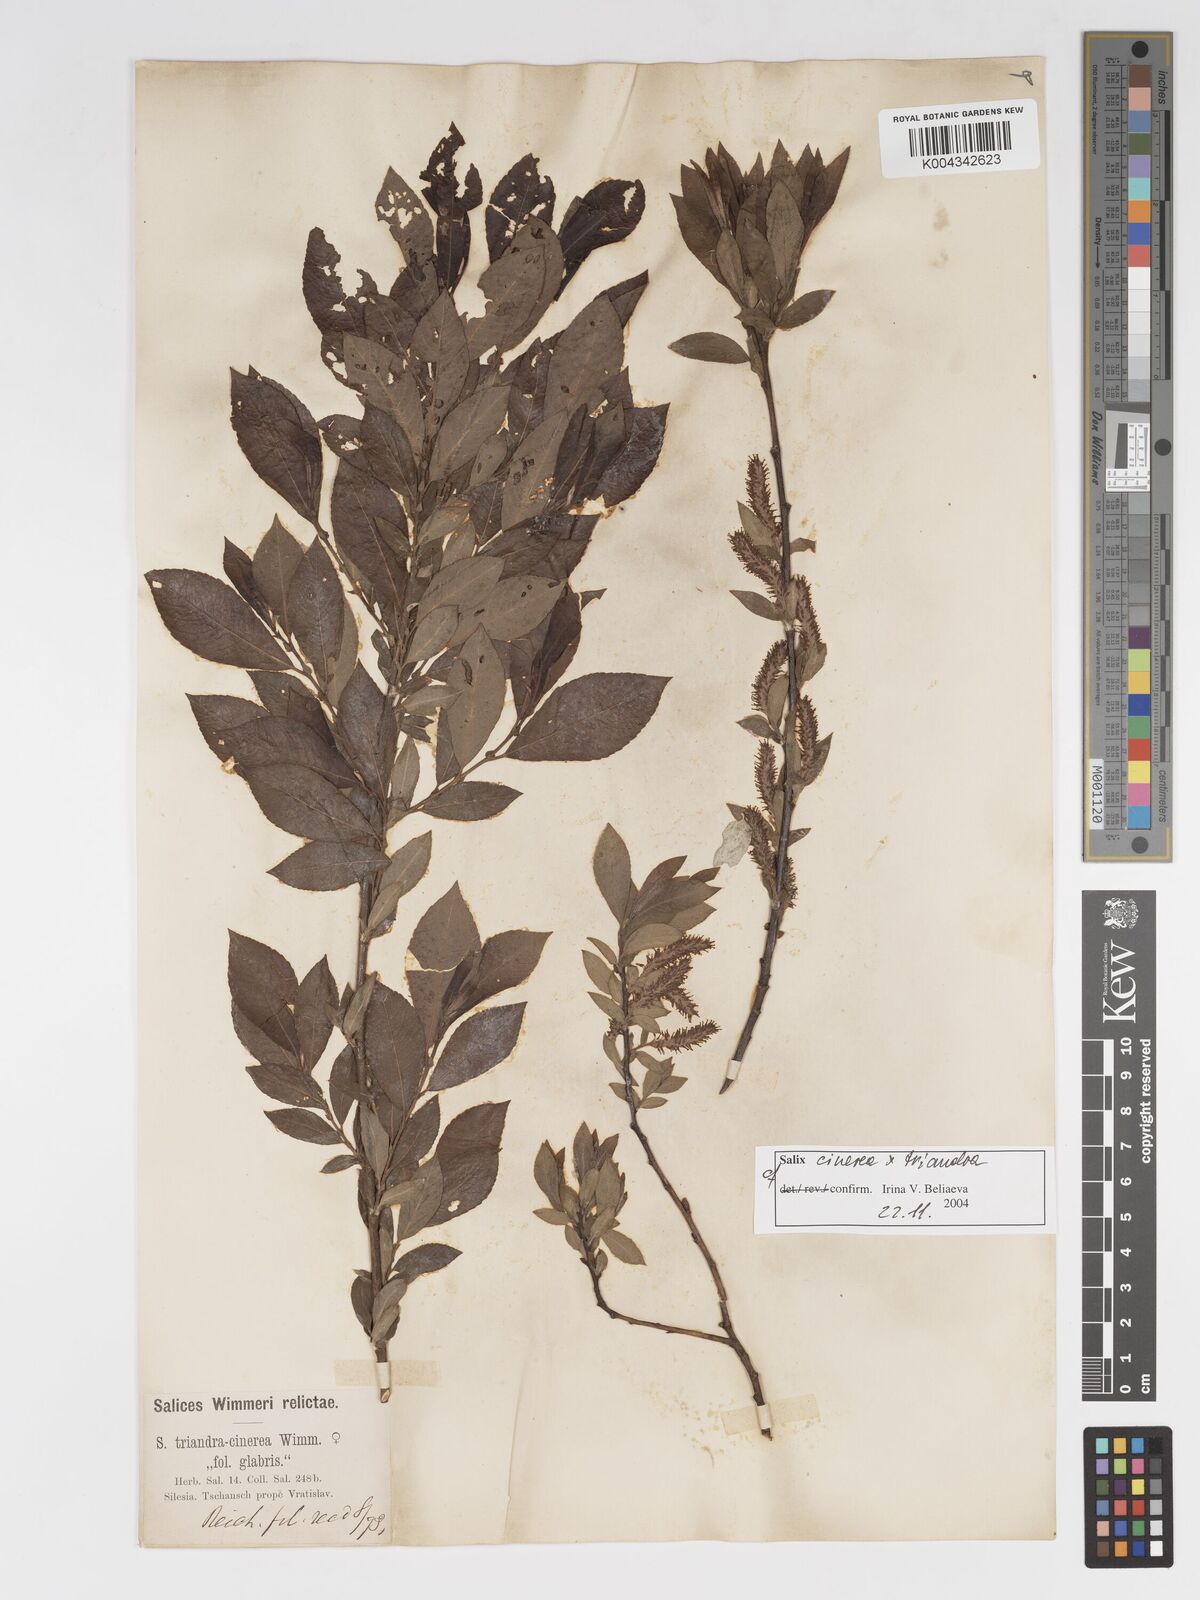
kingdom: Plantae
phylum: Tracheophyta
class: Magnoliopsida
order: Malpighiales
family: Salicaceae
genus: Salix
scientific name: Salix cinerea
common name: Common sallow
